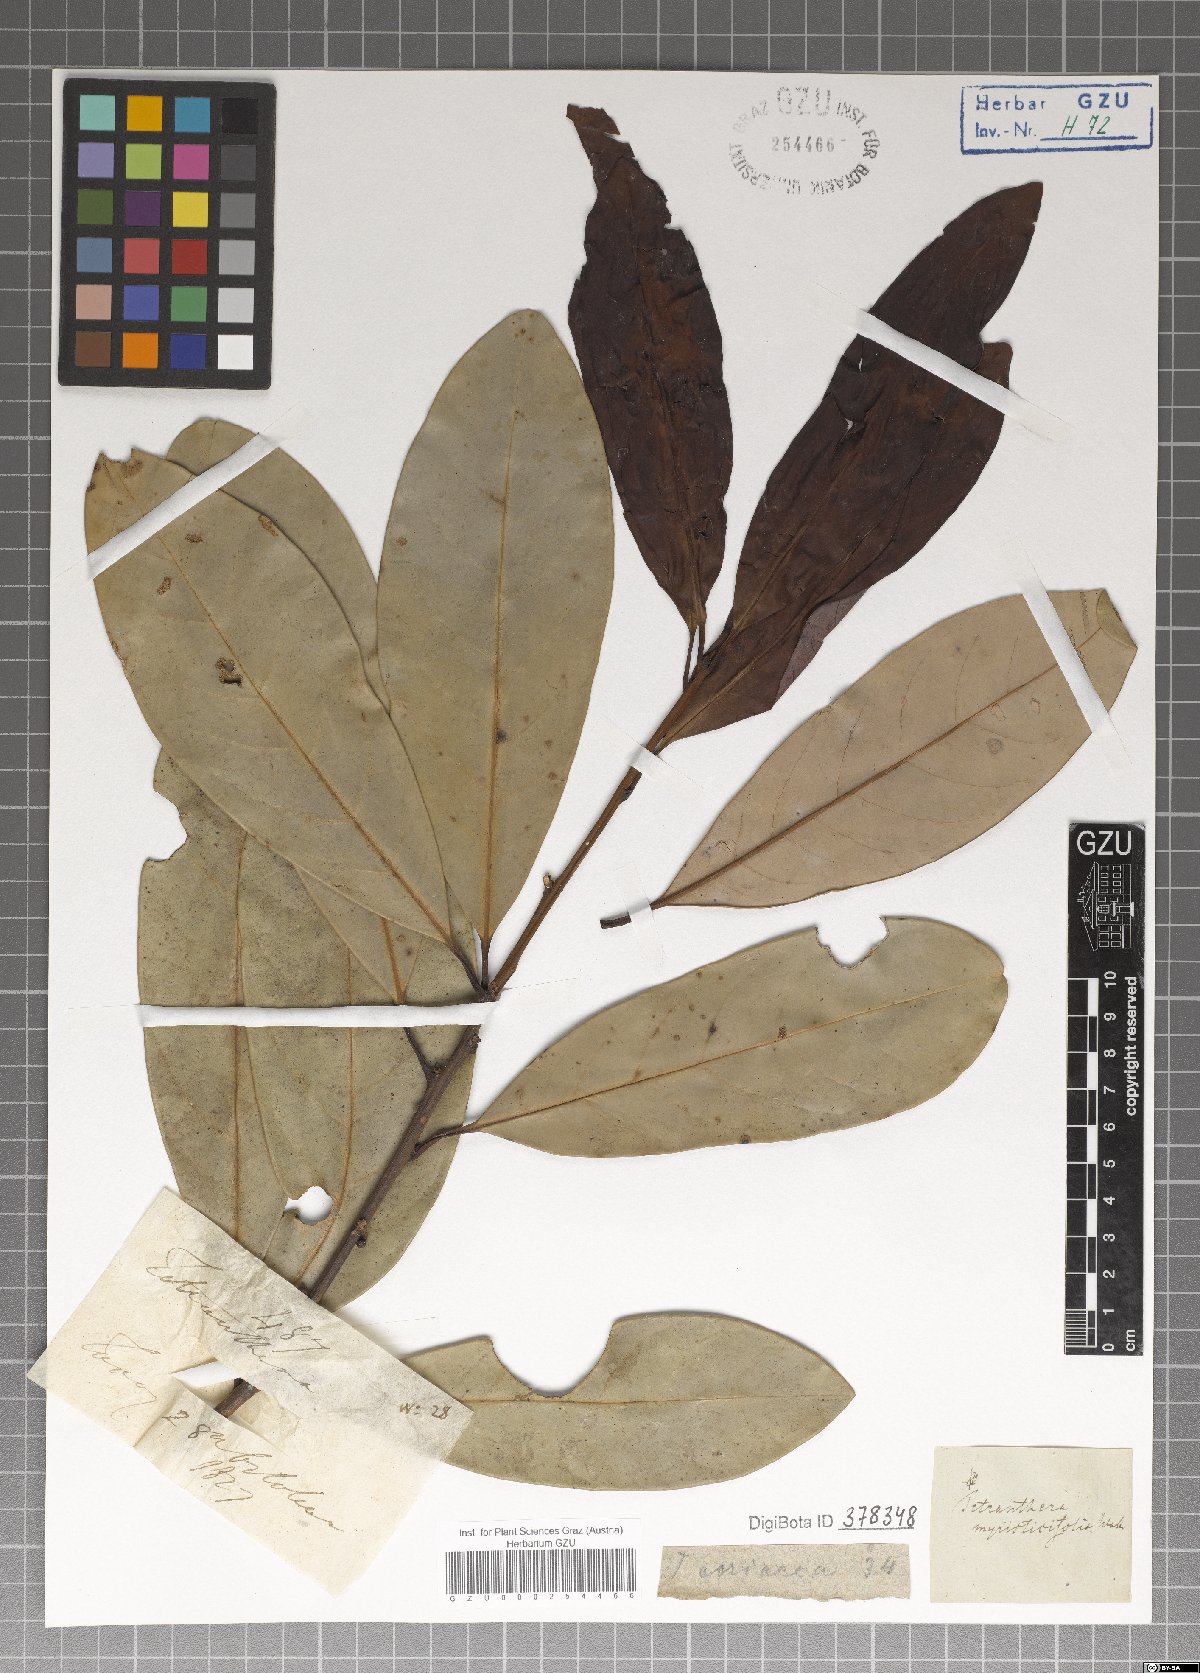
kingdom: Plantae
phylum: Tracheophyta
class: Magnoliopsida
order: Laurales
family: Lauraceae
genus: Litsea
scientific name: Litsea myristicifolia
